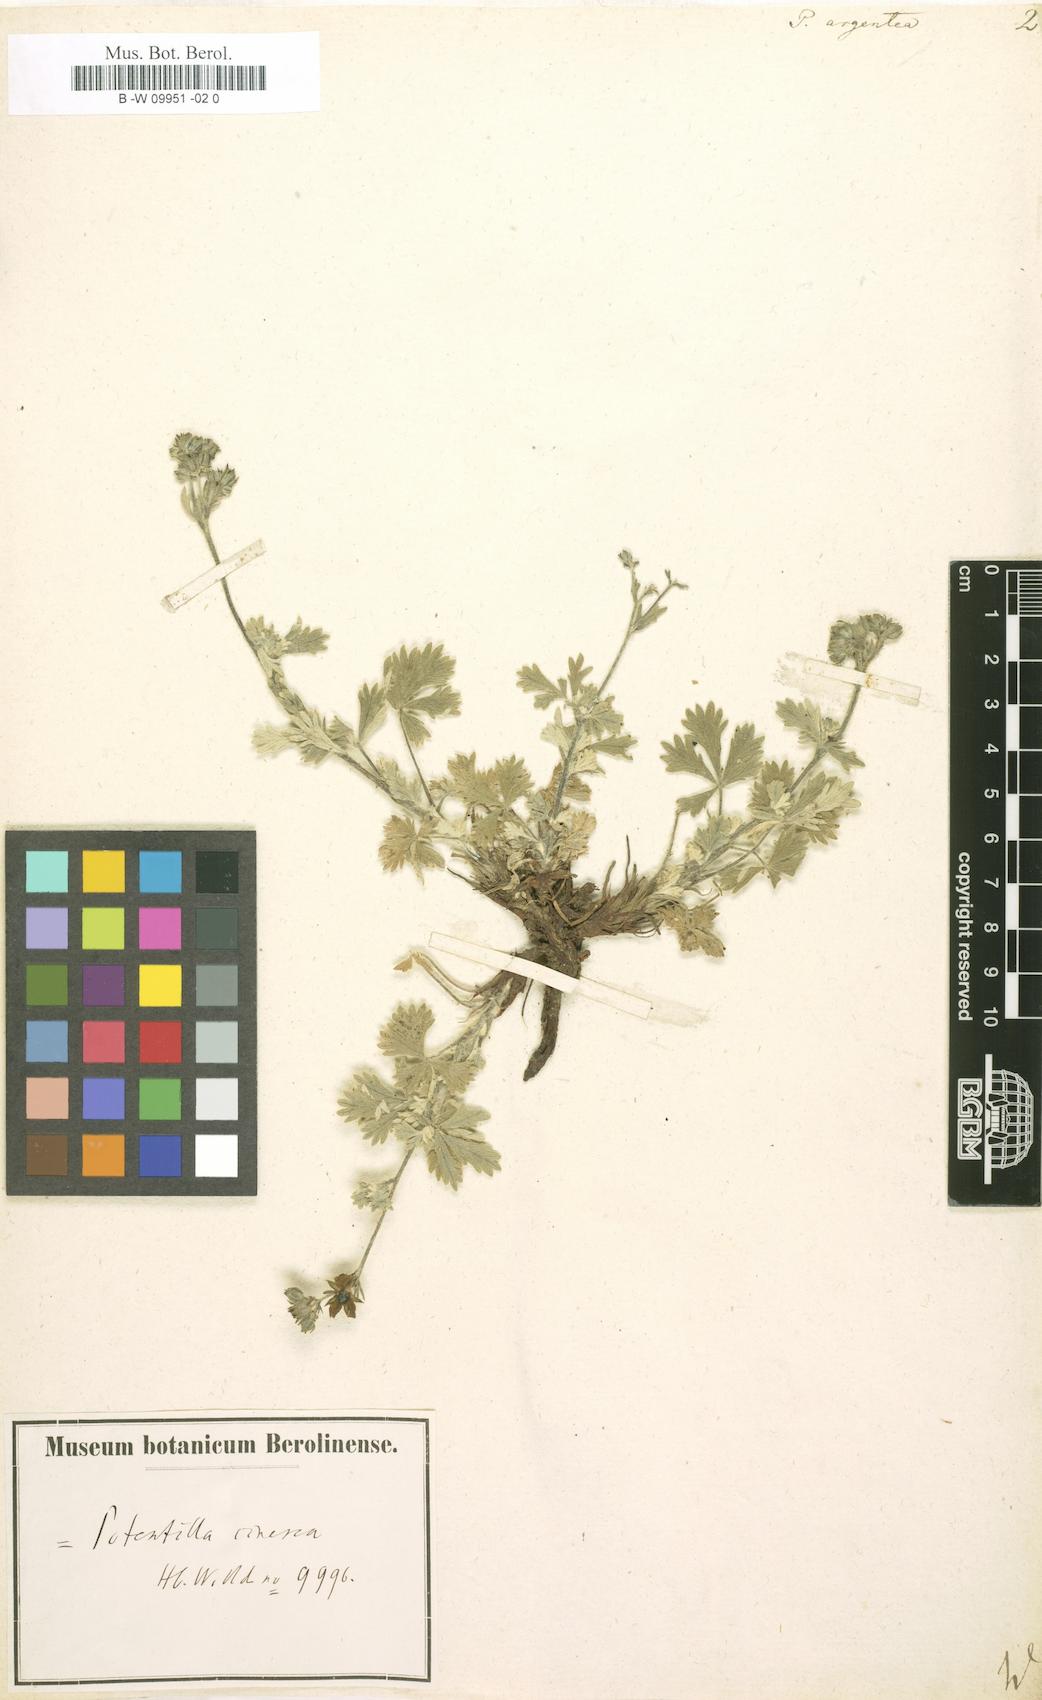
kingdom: Plantae
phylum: Tracheophyta
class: Magnoliopsida
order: Rosales
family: Rosaceae
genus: Potentilla
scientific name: Potentilla argentea
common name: Hoary cinquefoil
